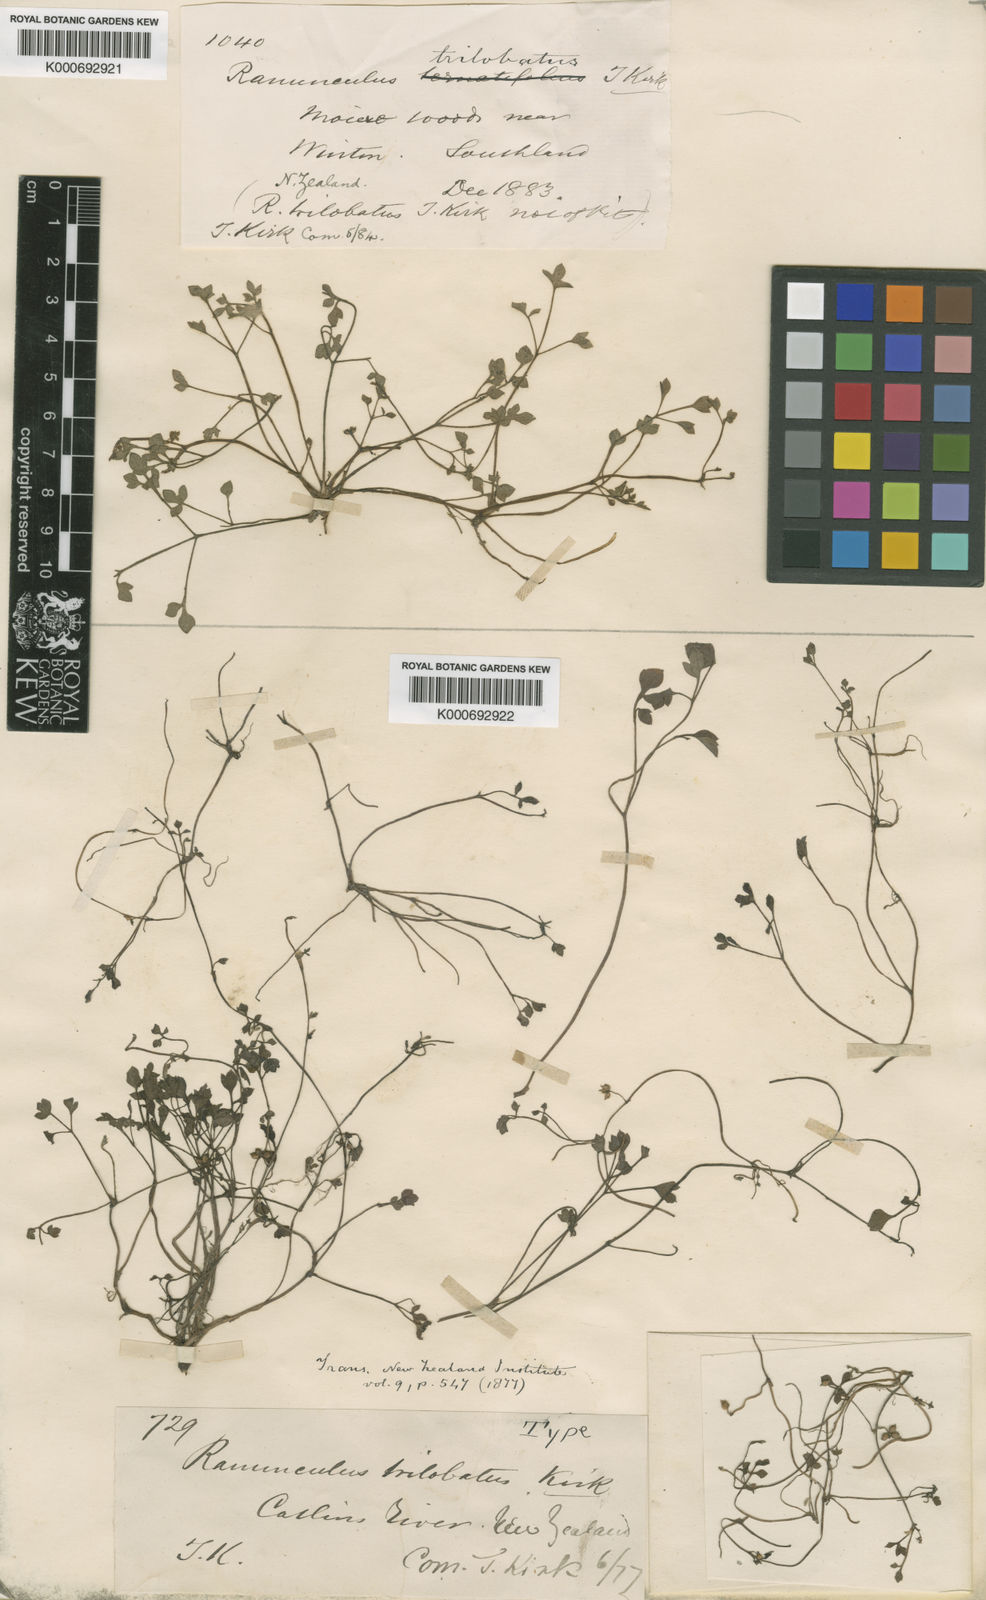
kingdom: Plantae
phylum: Tracheophyta
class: Magnoliopsida
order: Ranunculales
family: Ranunculaceae
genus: Ranunculus
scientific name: Ranunculus montanus
